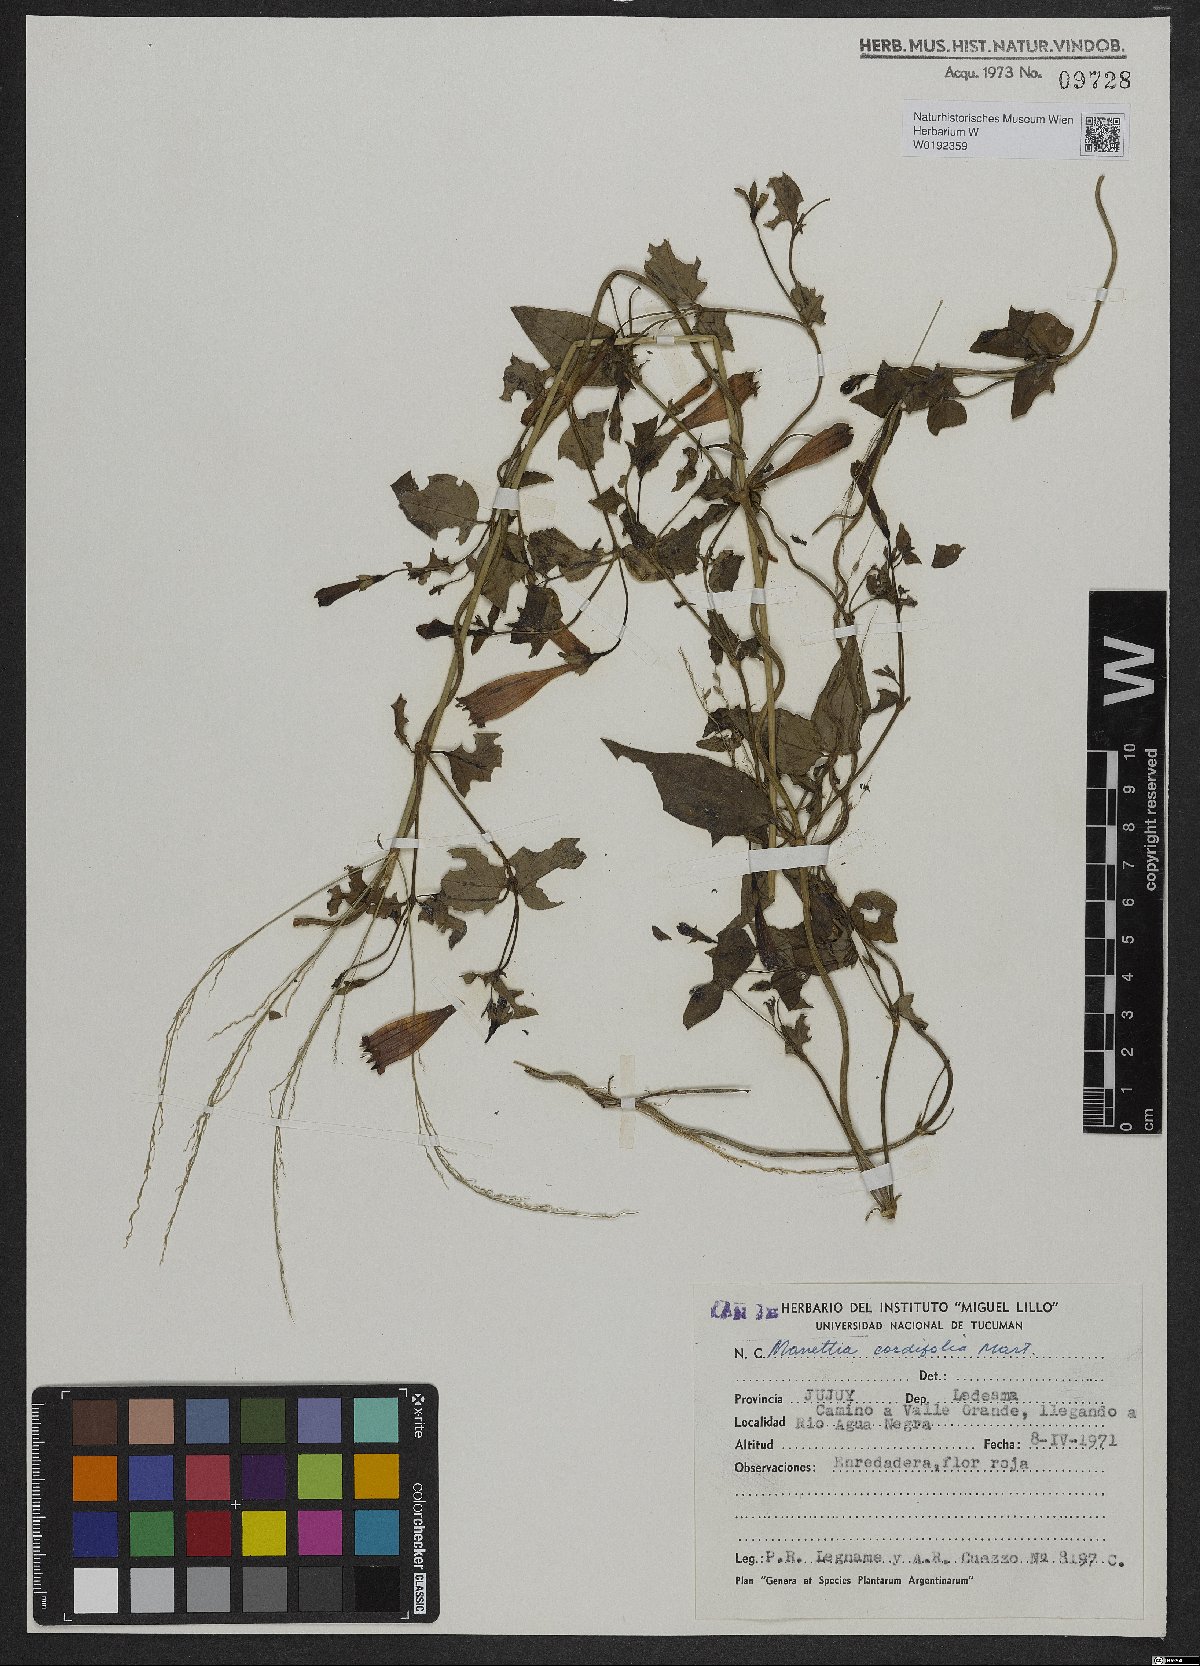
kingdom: Plantae
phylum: Tracheophyta
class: Magnoliopsida
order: Gentianales
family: Rubiaceae
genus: Manettia
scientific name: Manettia cordifolia
